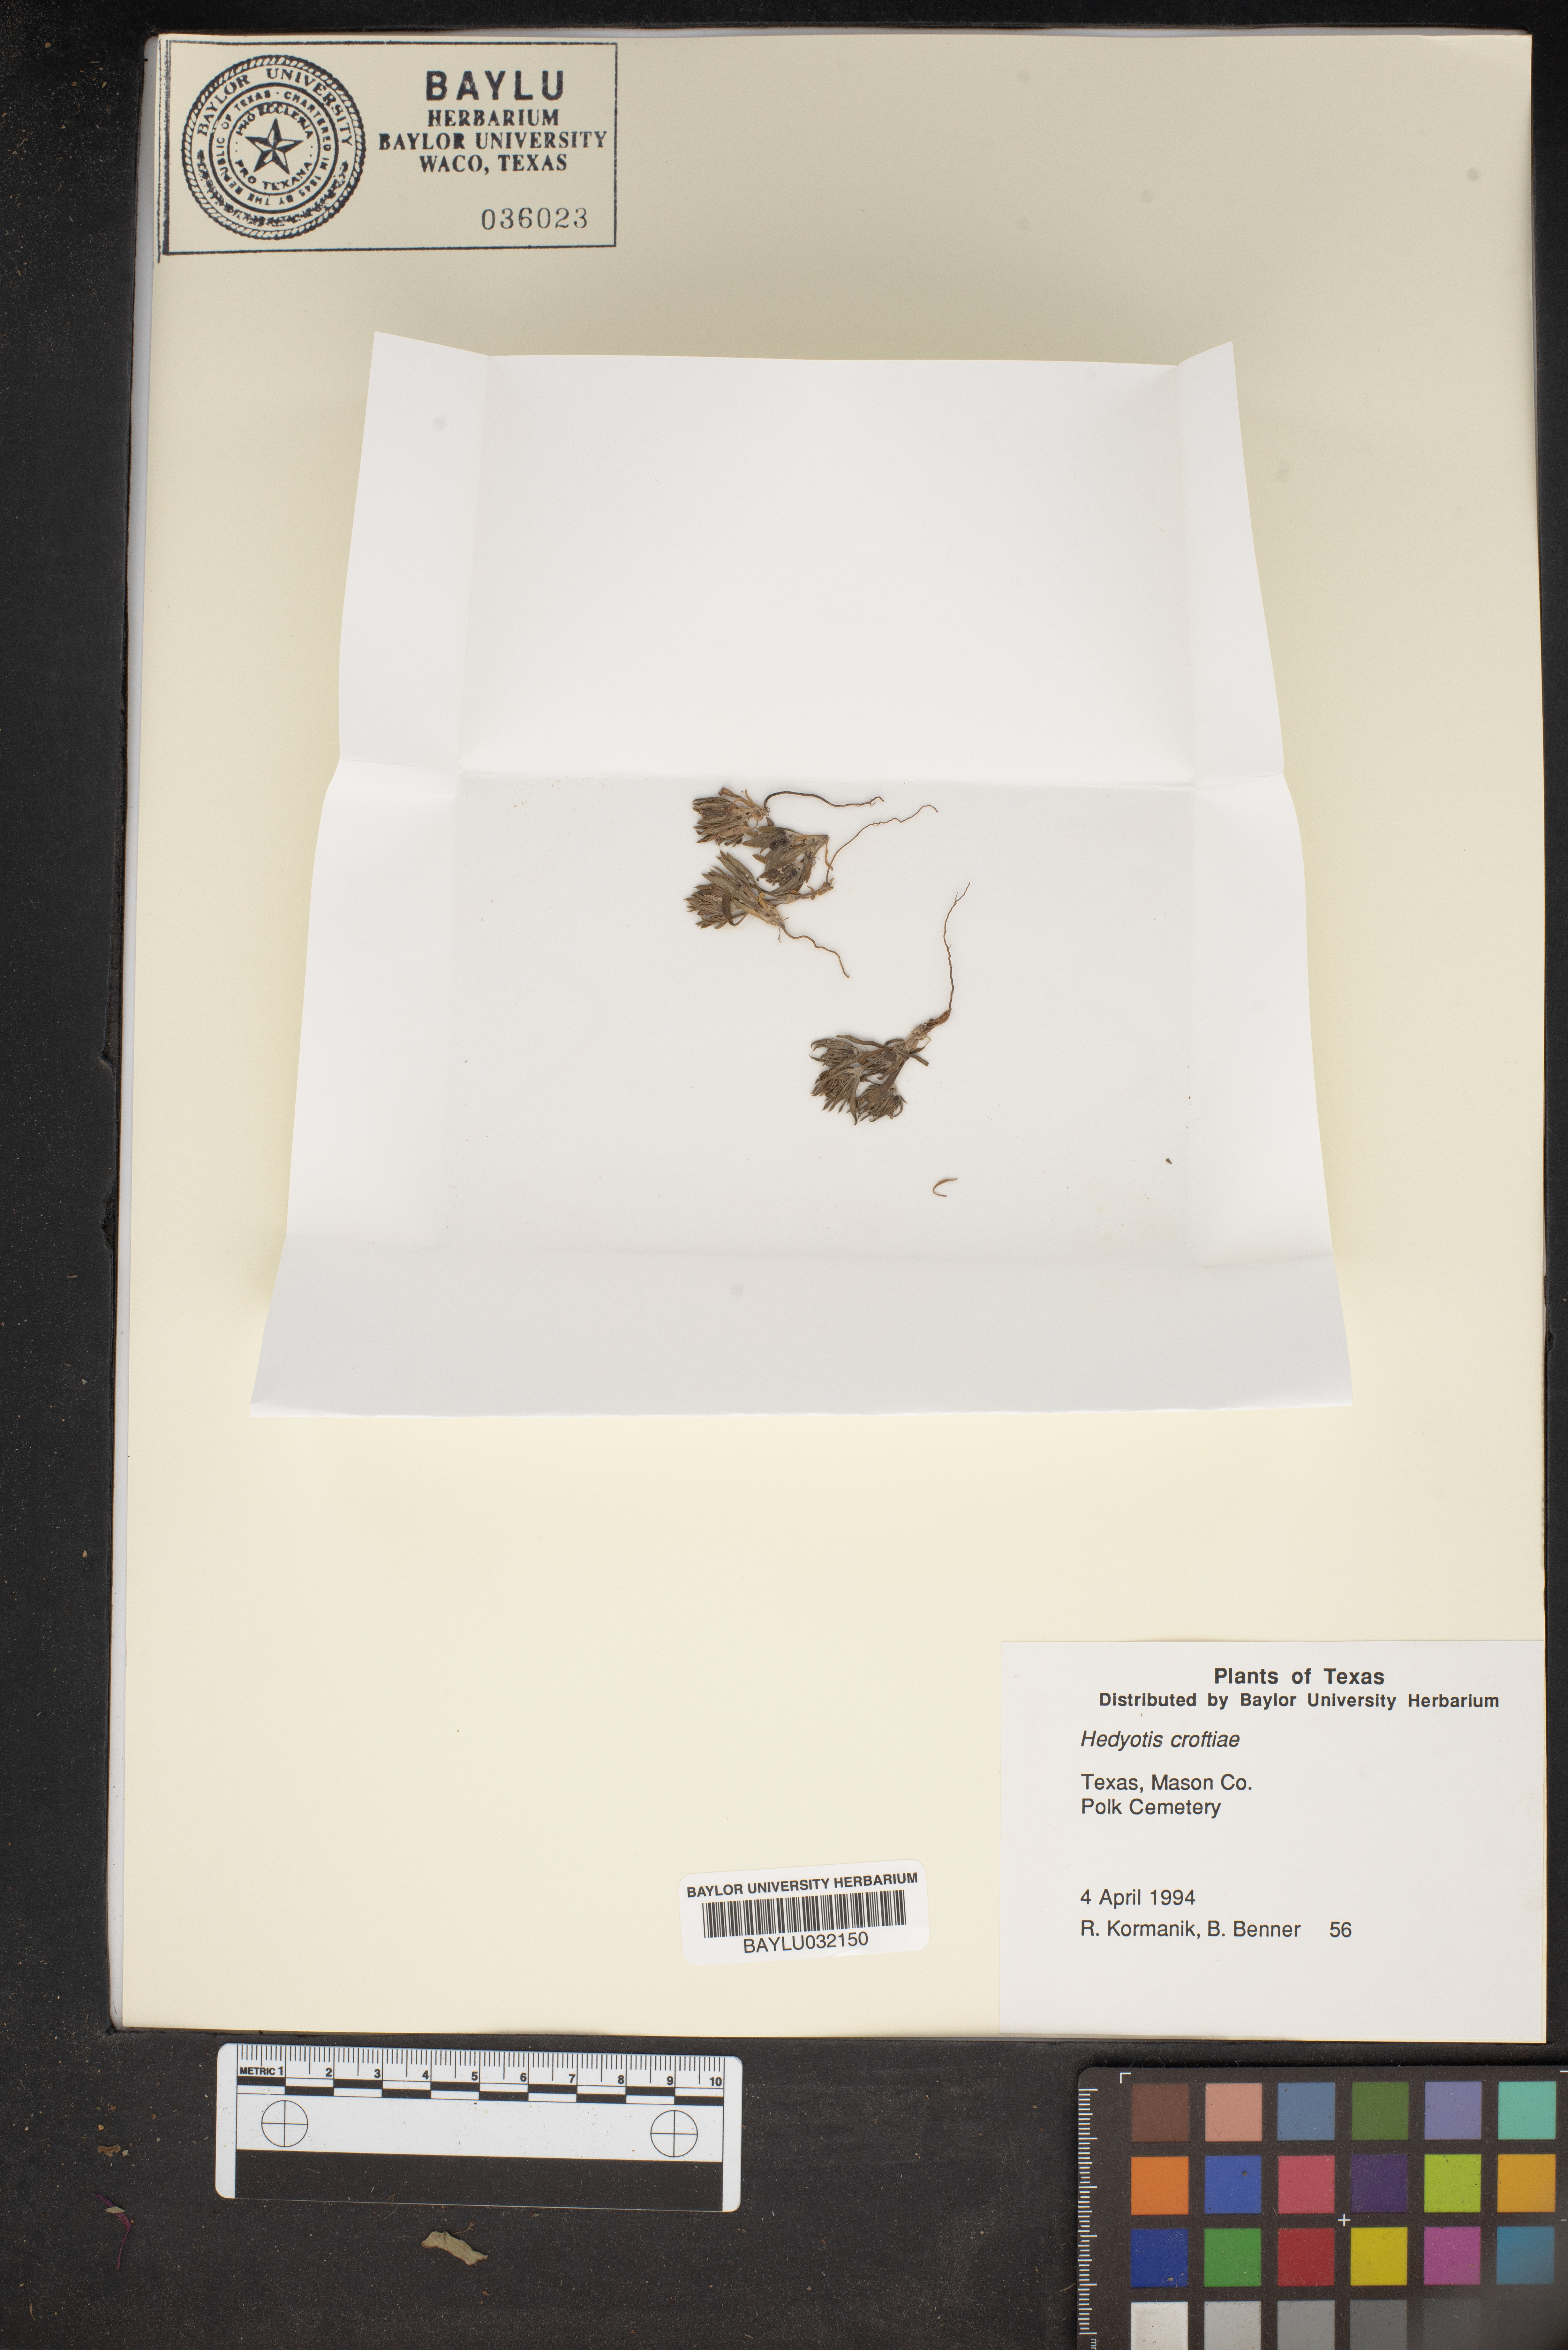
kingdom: Plantae
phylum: Tracheophyta
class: Magnoliopsida
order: Gentianales
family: Rubiaceae
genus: Houstonia
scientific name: Houstonia croftiae
